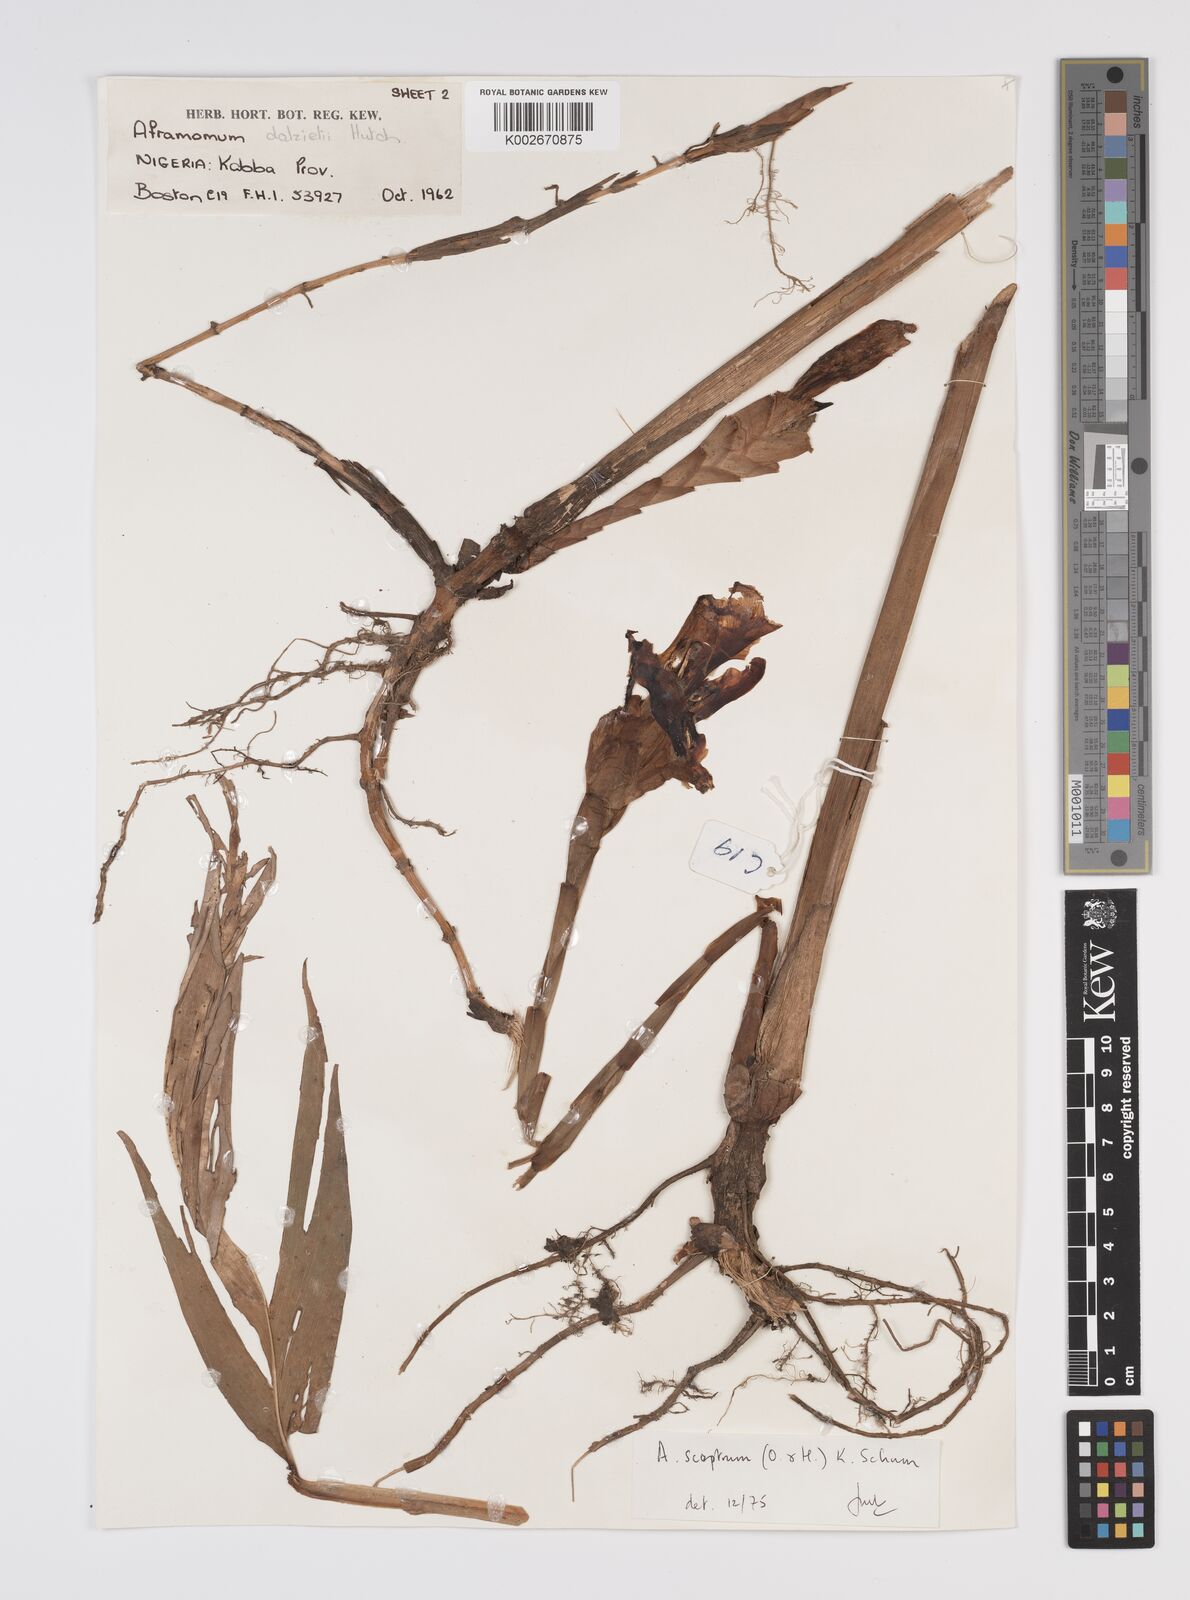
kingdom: Plantae
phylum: Tracheophyta
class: Liliopsida
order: Zingiberales
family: Zingiberaceae
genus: Aframomum
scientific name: Aframomum cereum
